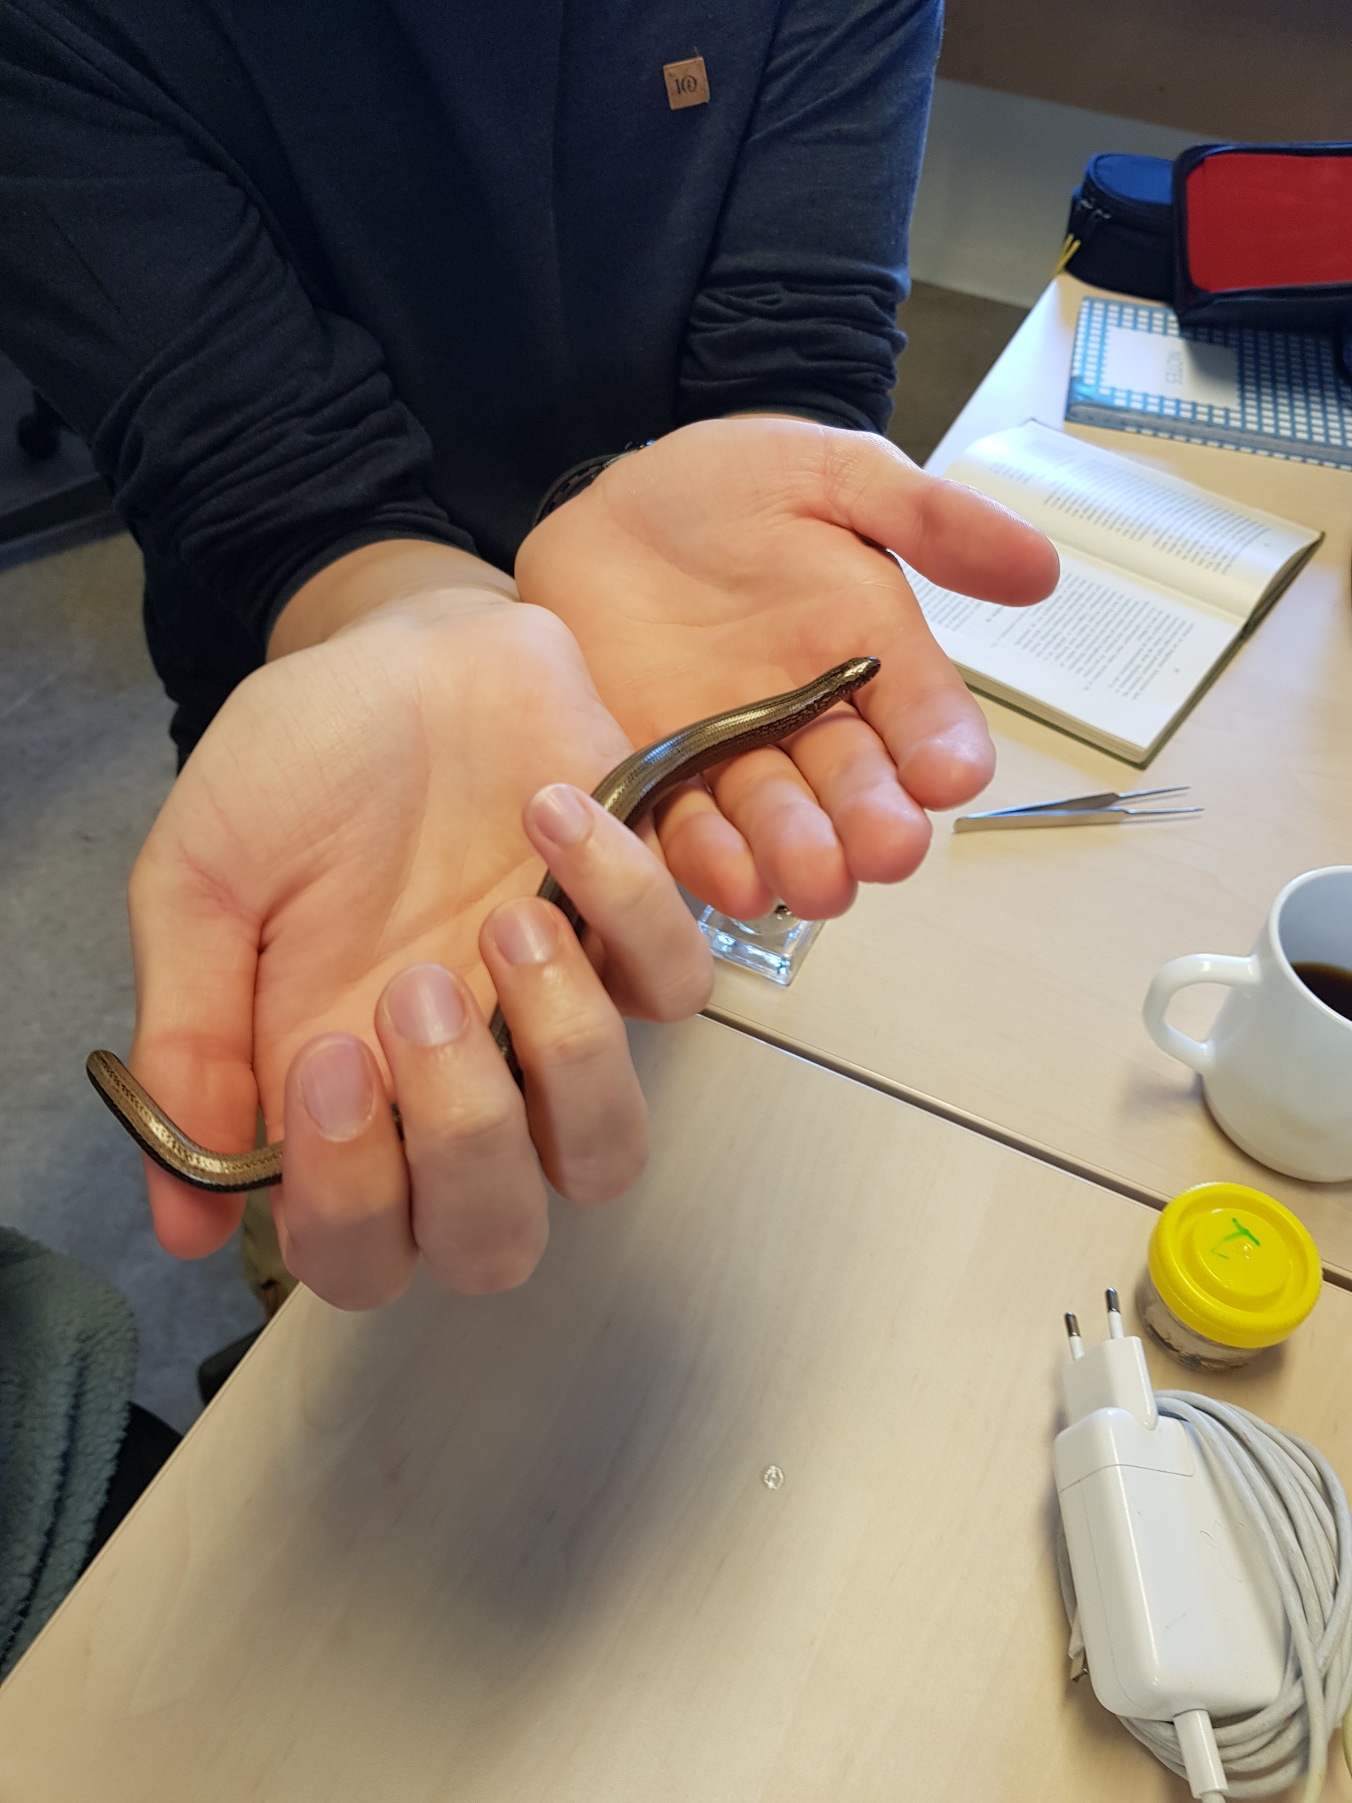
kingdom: Animalia
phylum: Chordata
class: Squamata
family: Anguidae
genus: Anguis
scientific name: Anguis fragilis
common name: Stålorm
